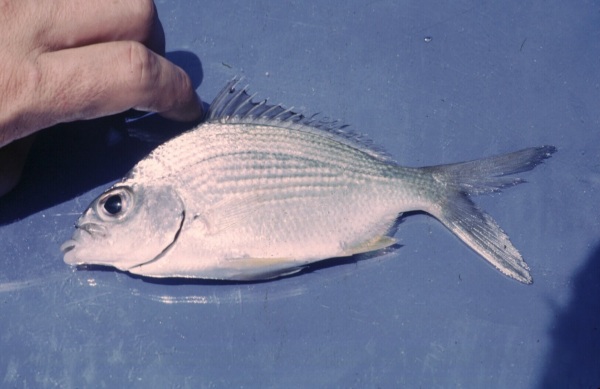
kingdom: Animalia
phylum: Chordata
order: Perciformes
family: Gerreidae
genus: Gerres
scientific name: Gerres
